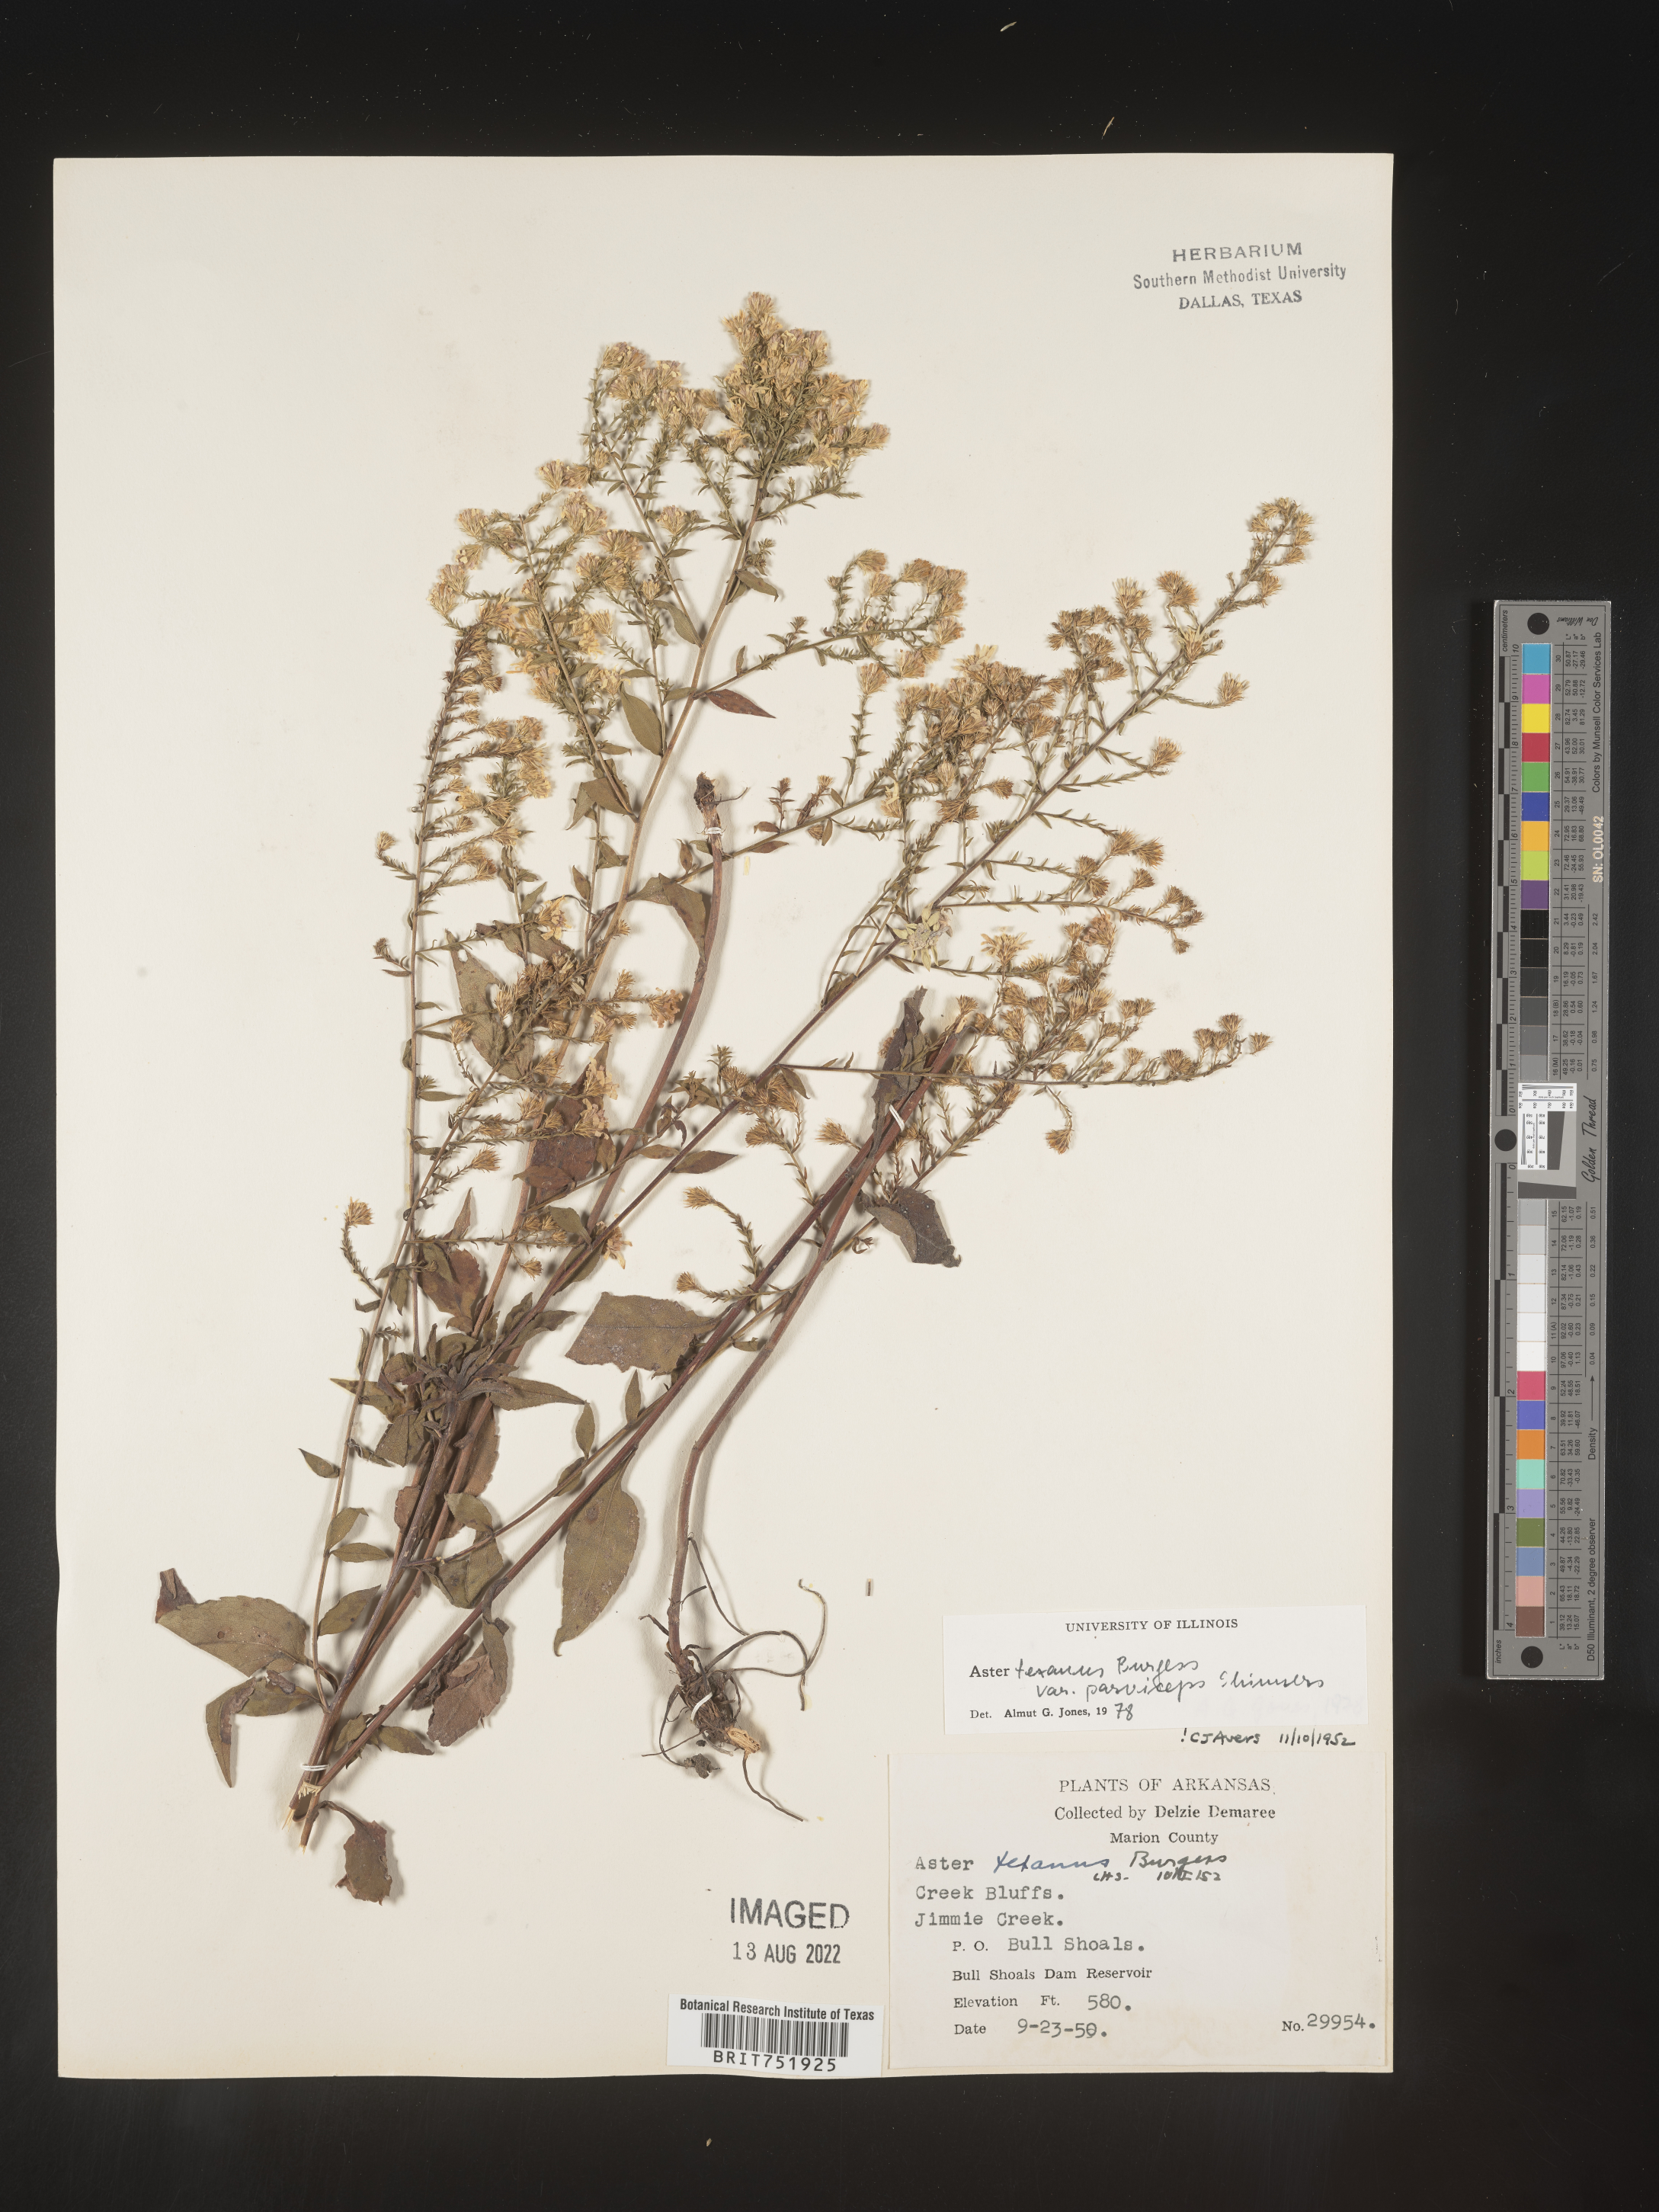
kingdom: Plantae
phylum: Tracheophyta
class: Magnoliopsida
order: Asterales
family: Asteraceae
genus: Symphyotrichum
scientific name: Symphyotrichum drummondii
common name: Drummond's aster
